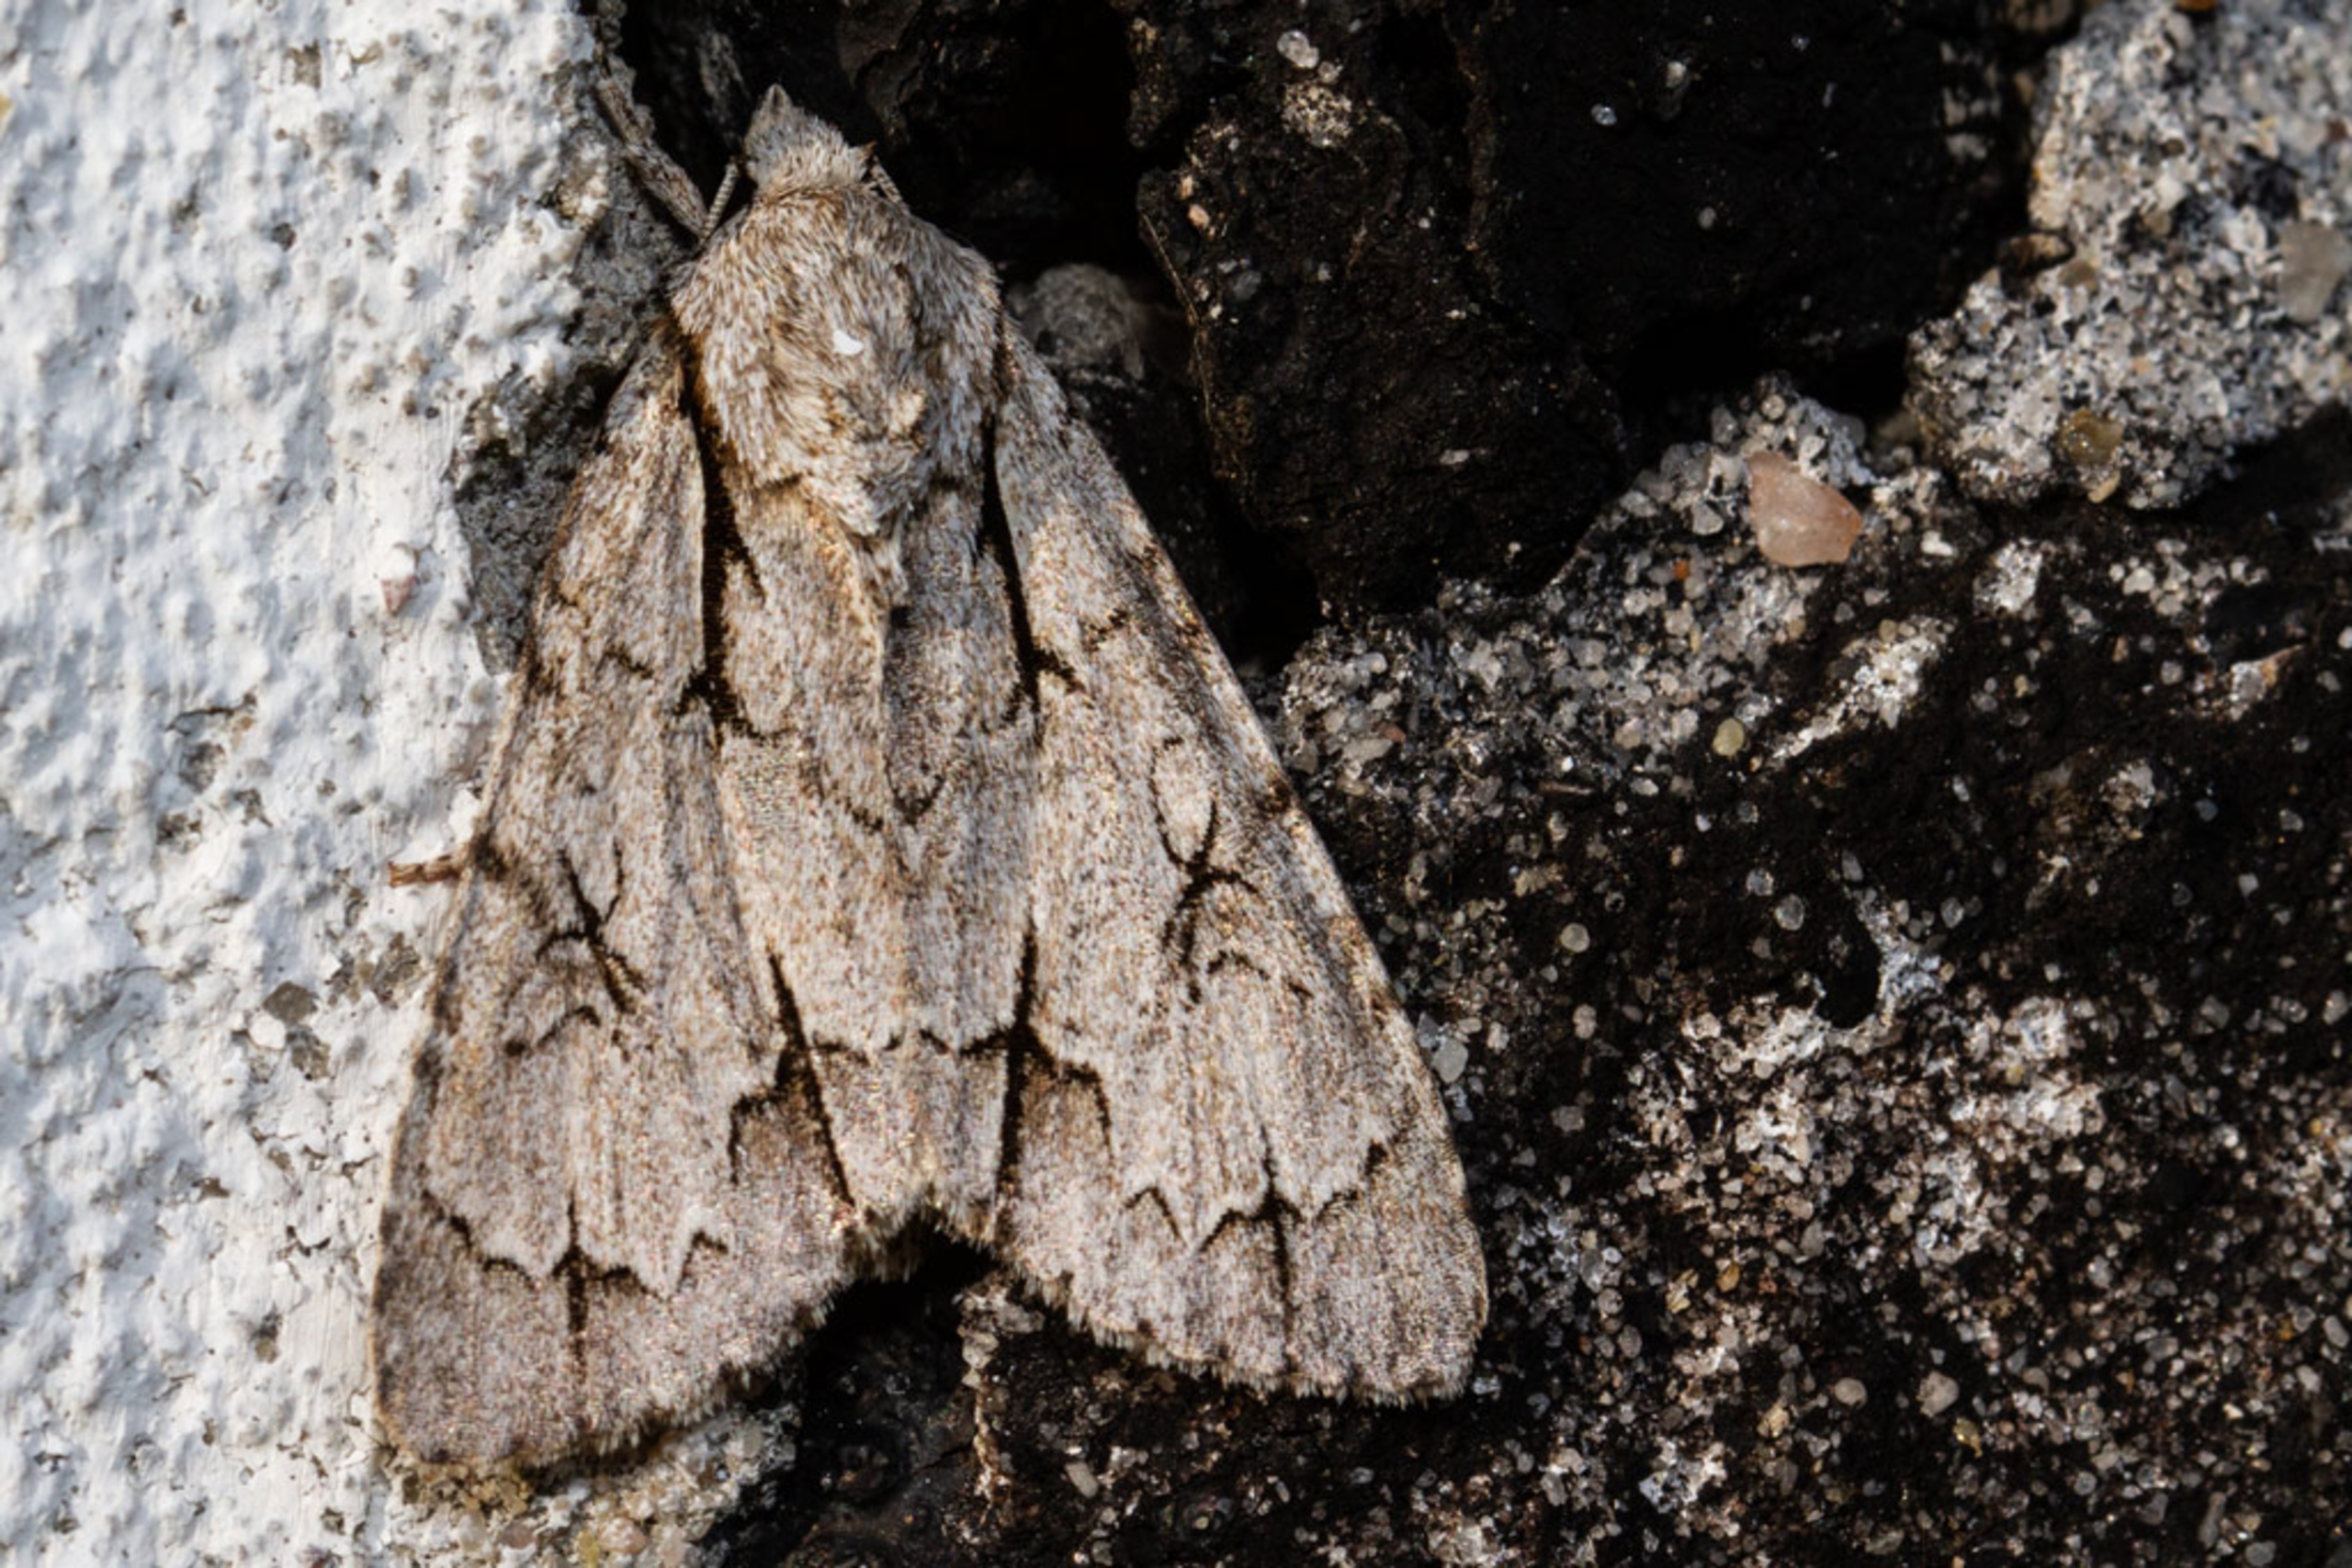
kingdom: Animalia
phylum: Arthropoda
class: Insecta
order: Lepidoptera
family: Noctuidae
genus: Acronicta
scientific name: Acronicta psi
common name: Psi-ugle
